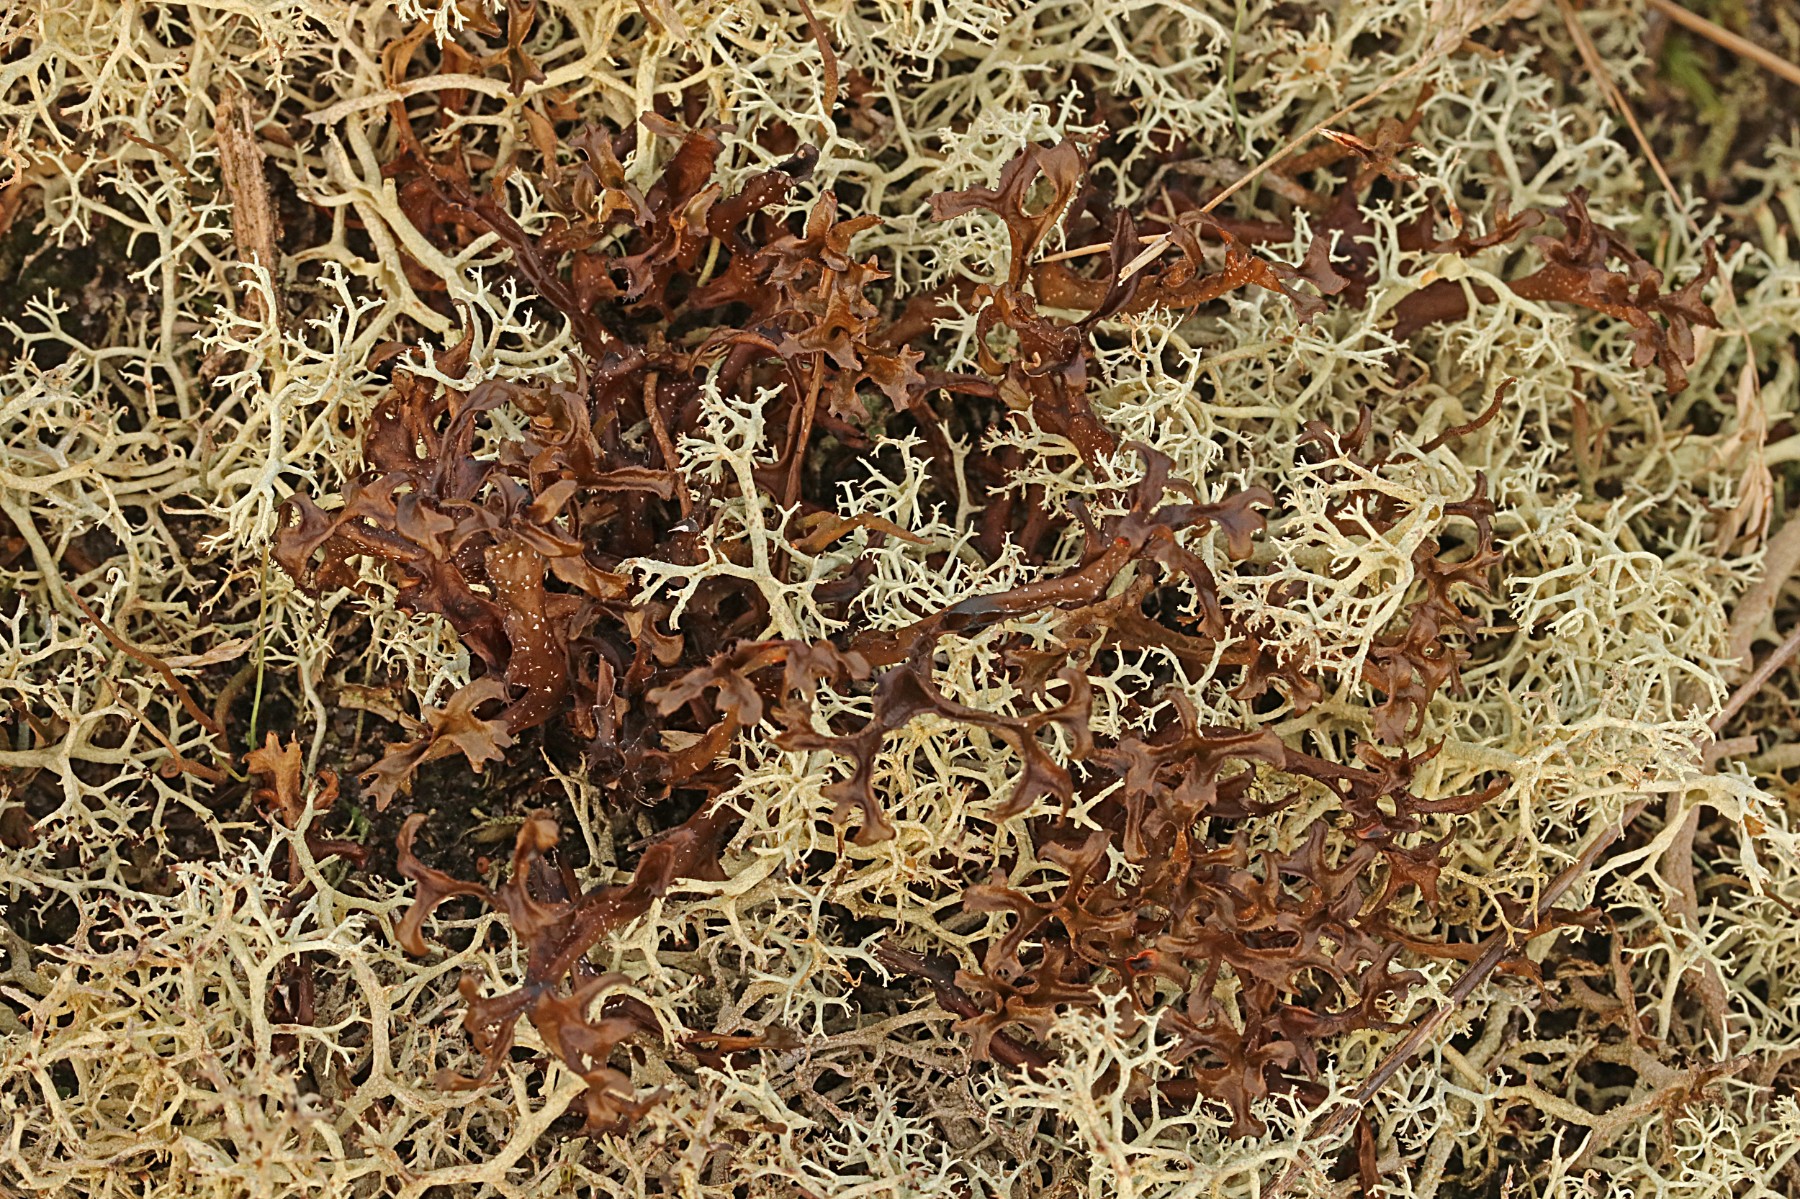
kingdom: Fungi
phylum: Ascomycota
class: Lecanoromycetes
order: Lecanorales
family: Parmeliaceae
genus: Cetraria
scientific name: Cetraria islandica
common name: islandsk kruslav
